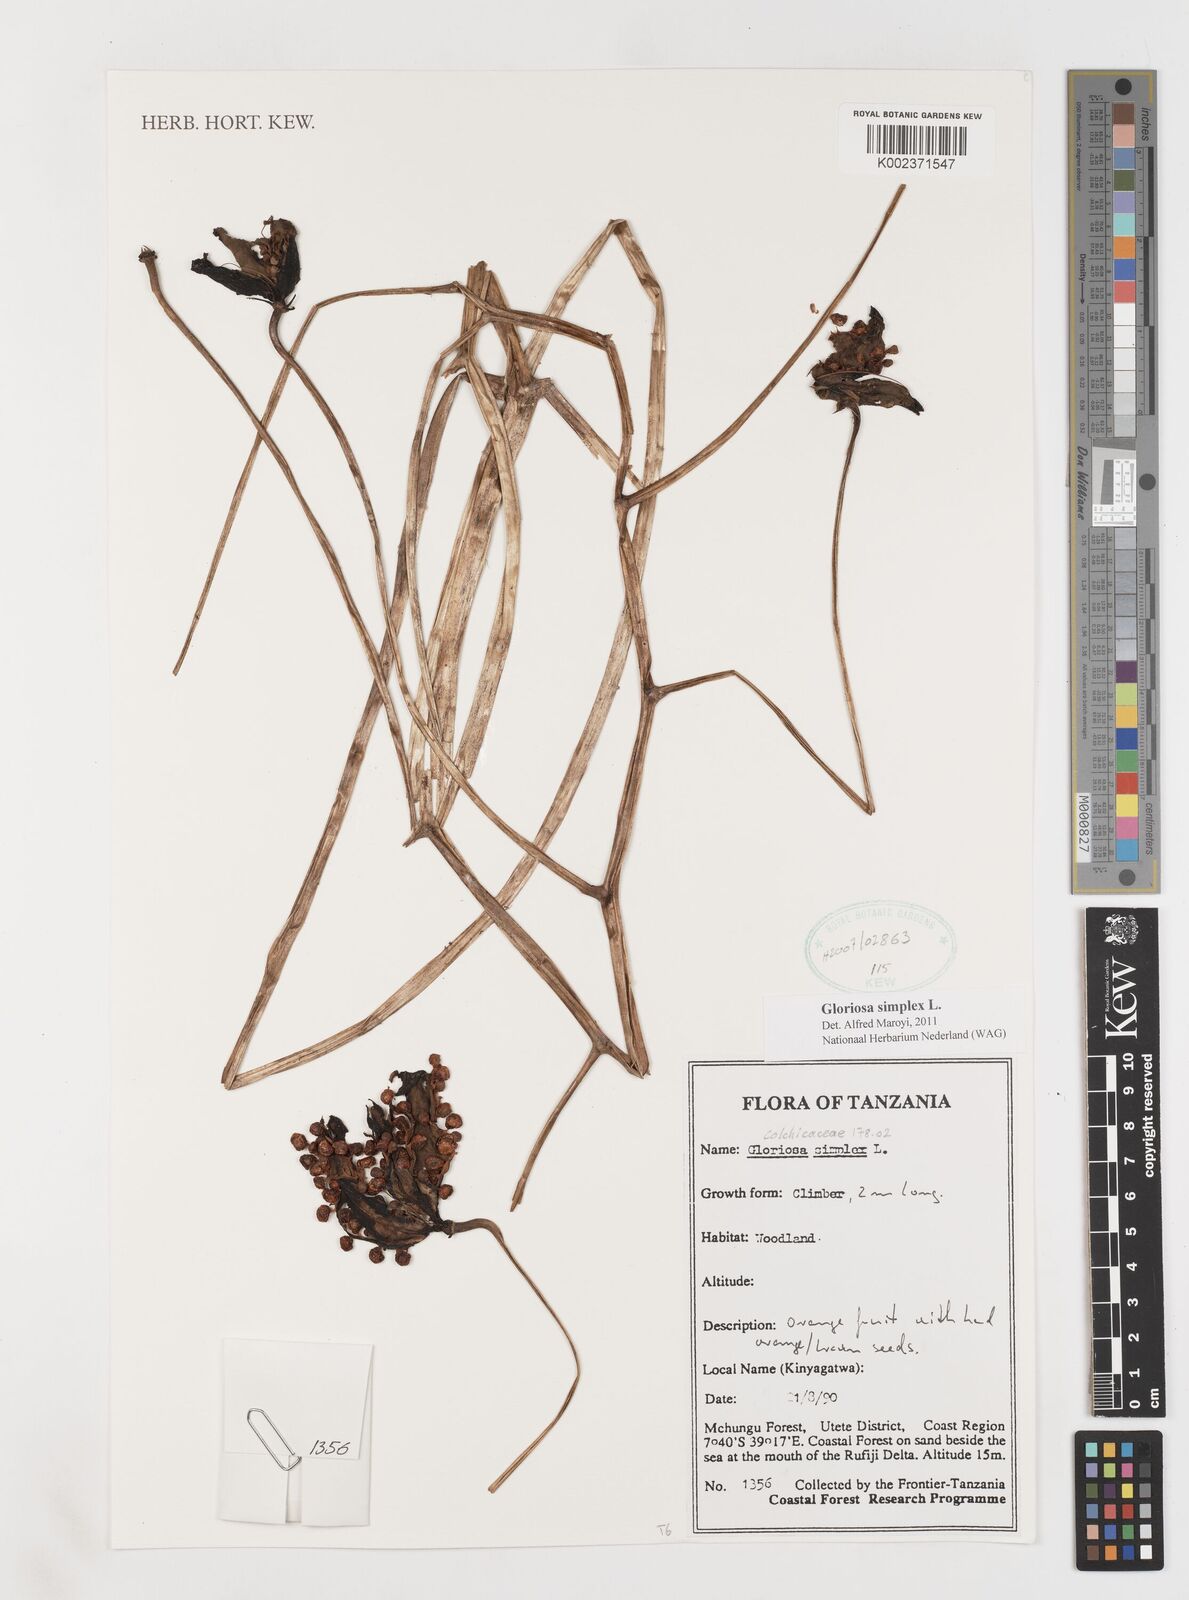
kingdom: Plantae
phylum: Tracheophyta
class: Liliopsida
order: Liliales
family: Colchicaceae
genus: Gloriosa
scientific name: Gloriosa simplex
